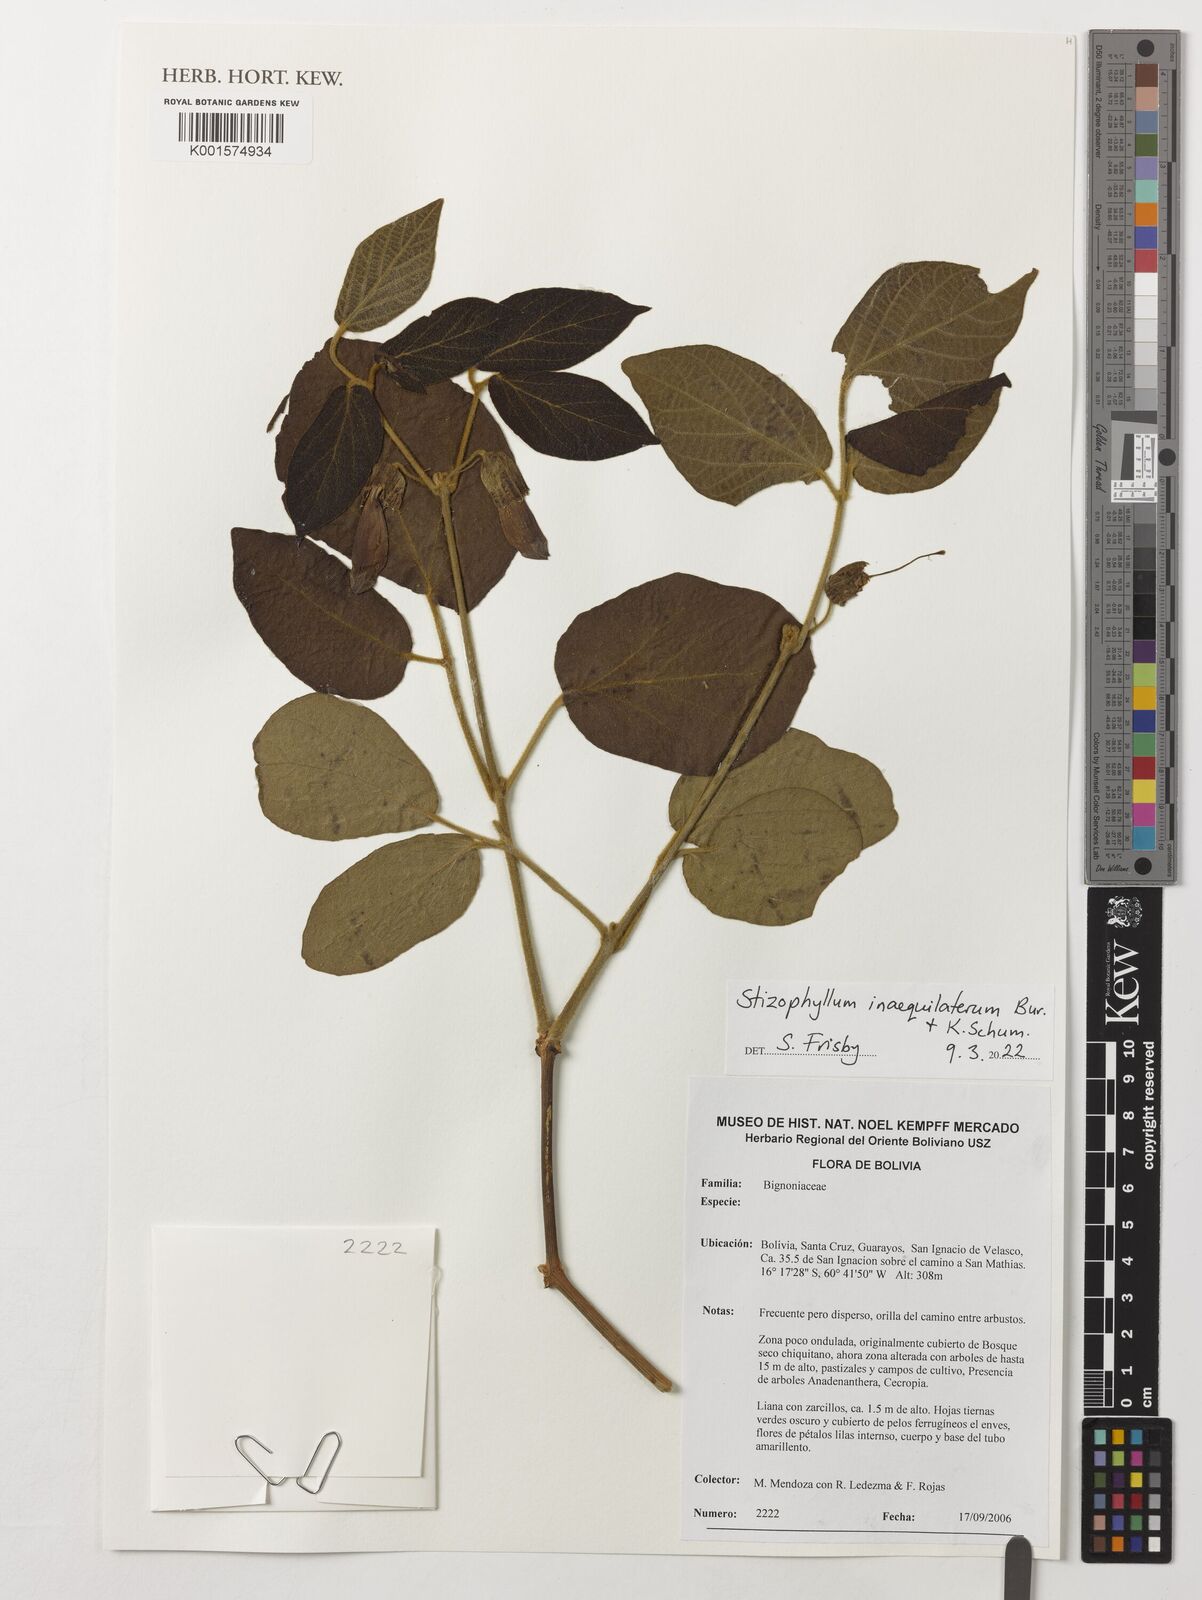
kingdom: Plantae
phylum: Tracheophyta
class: Magnoliopsida
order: Lamiales
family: Bignoniaceae
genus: Stizophyllum
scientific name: Stizophyllum inaequilaterum
